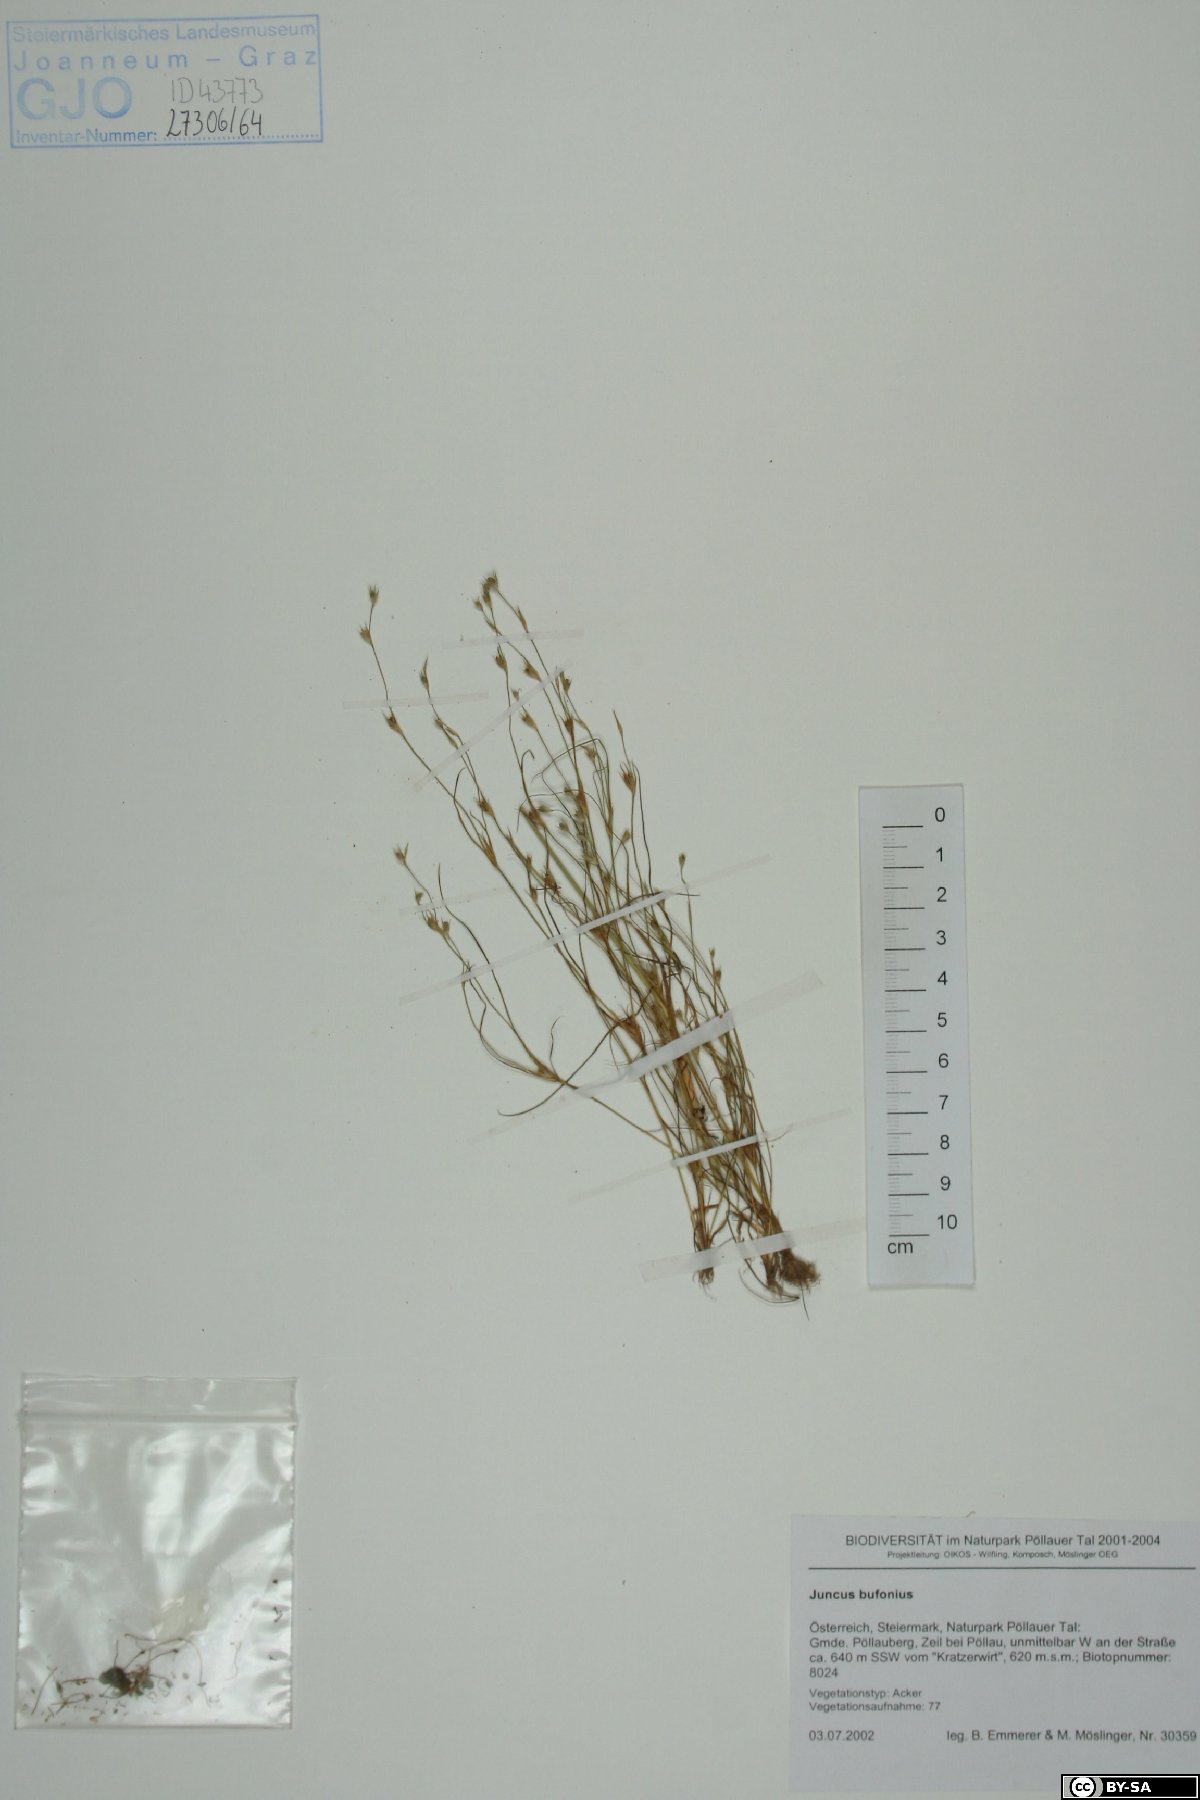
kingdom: Plantae
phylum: Tracheophyta
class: Liliopsida
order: Poales
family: Juncaceae
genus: Juncus
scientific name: Juncus bufonius
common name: Toad rush
